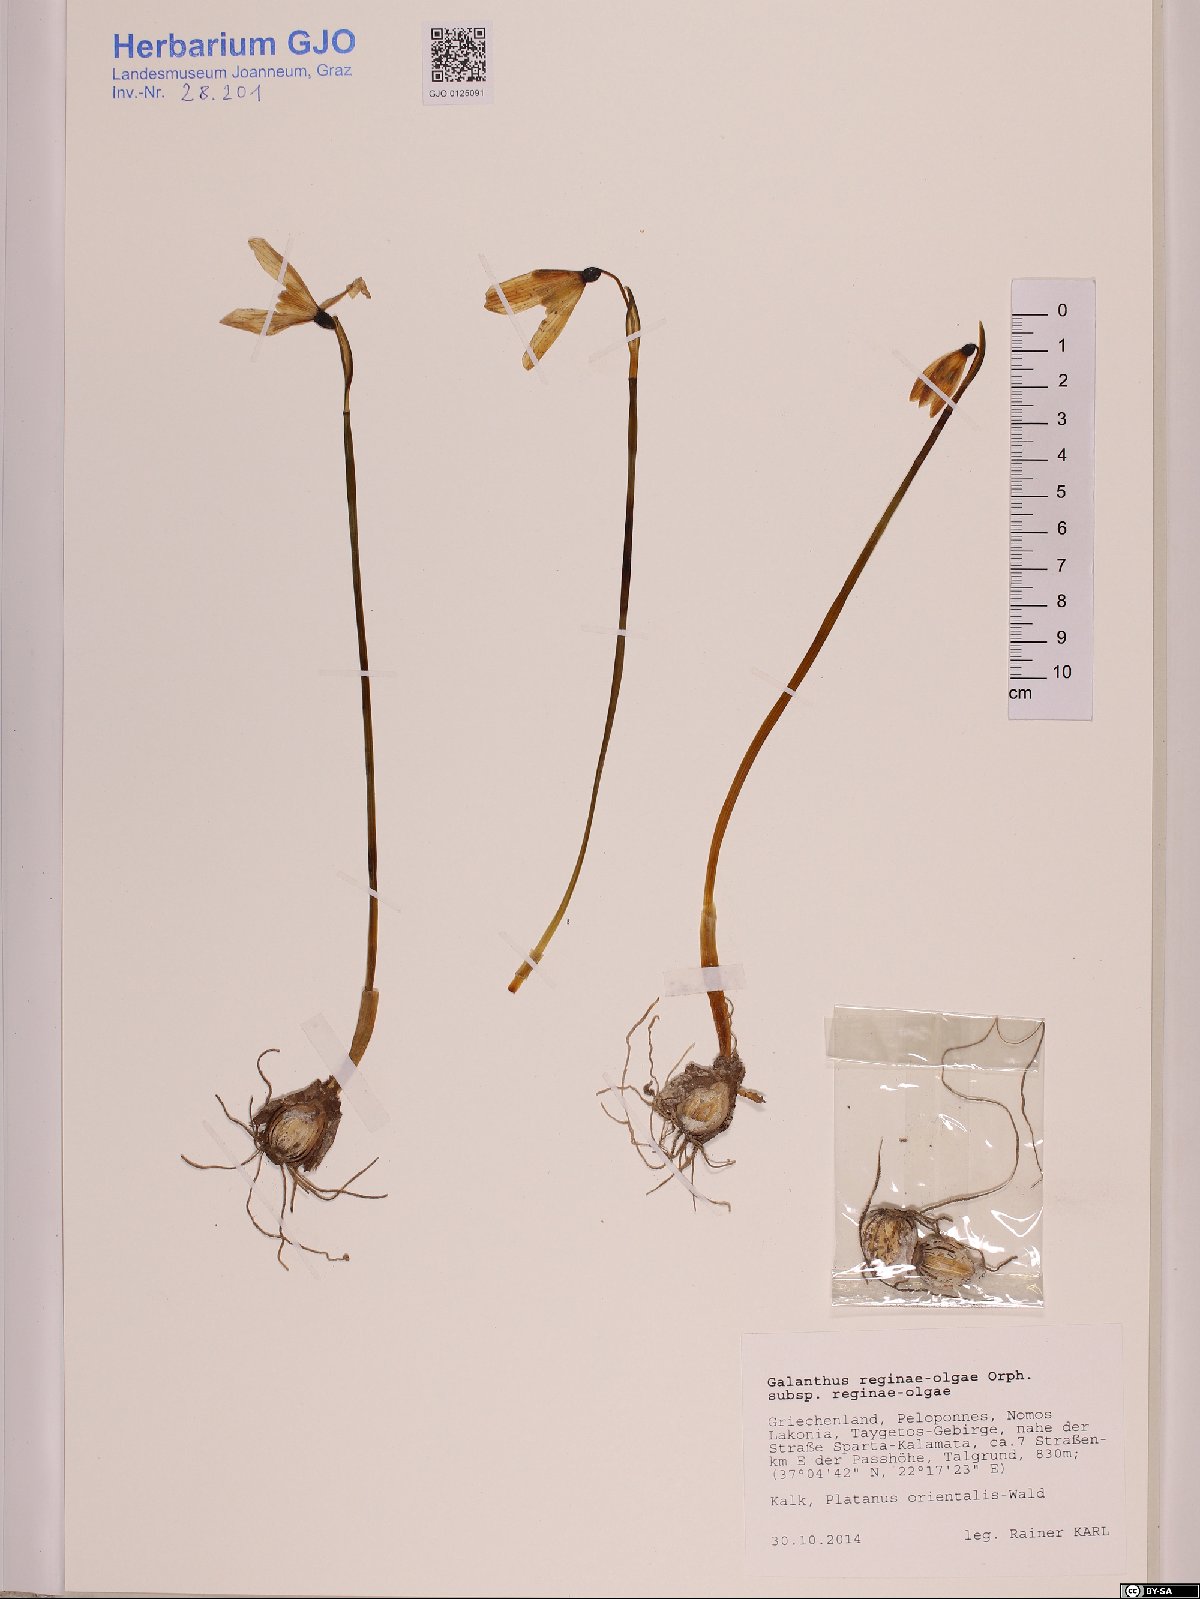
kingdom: Plantae
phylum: Tracheophyta
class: Liliopsida
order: Asparagales
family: Amaryllidaceae
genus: Galanthus
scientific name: Galanthus reginae-olgae
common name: Queen olga's snowdrop
